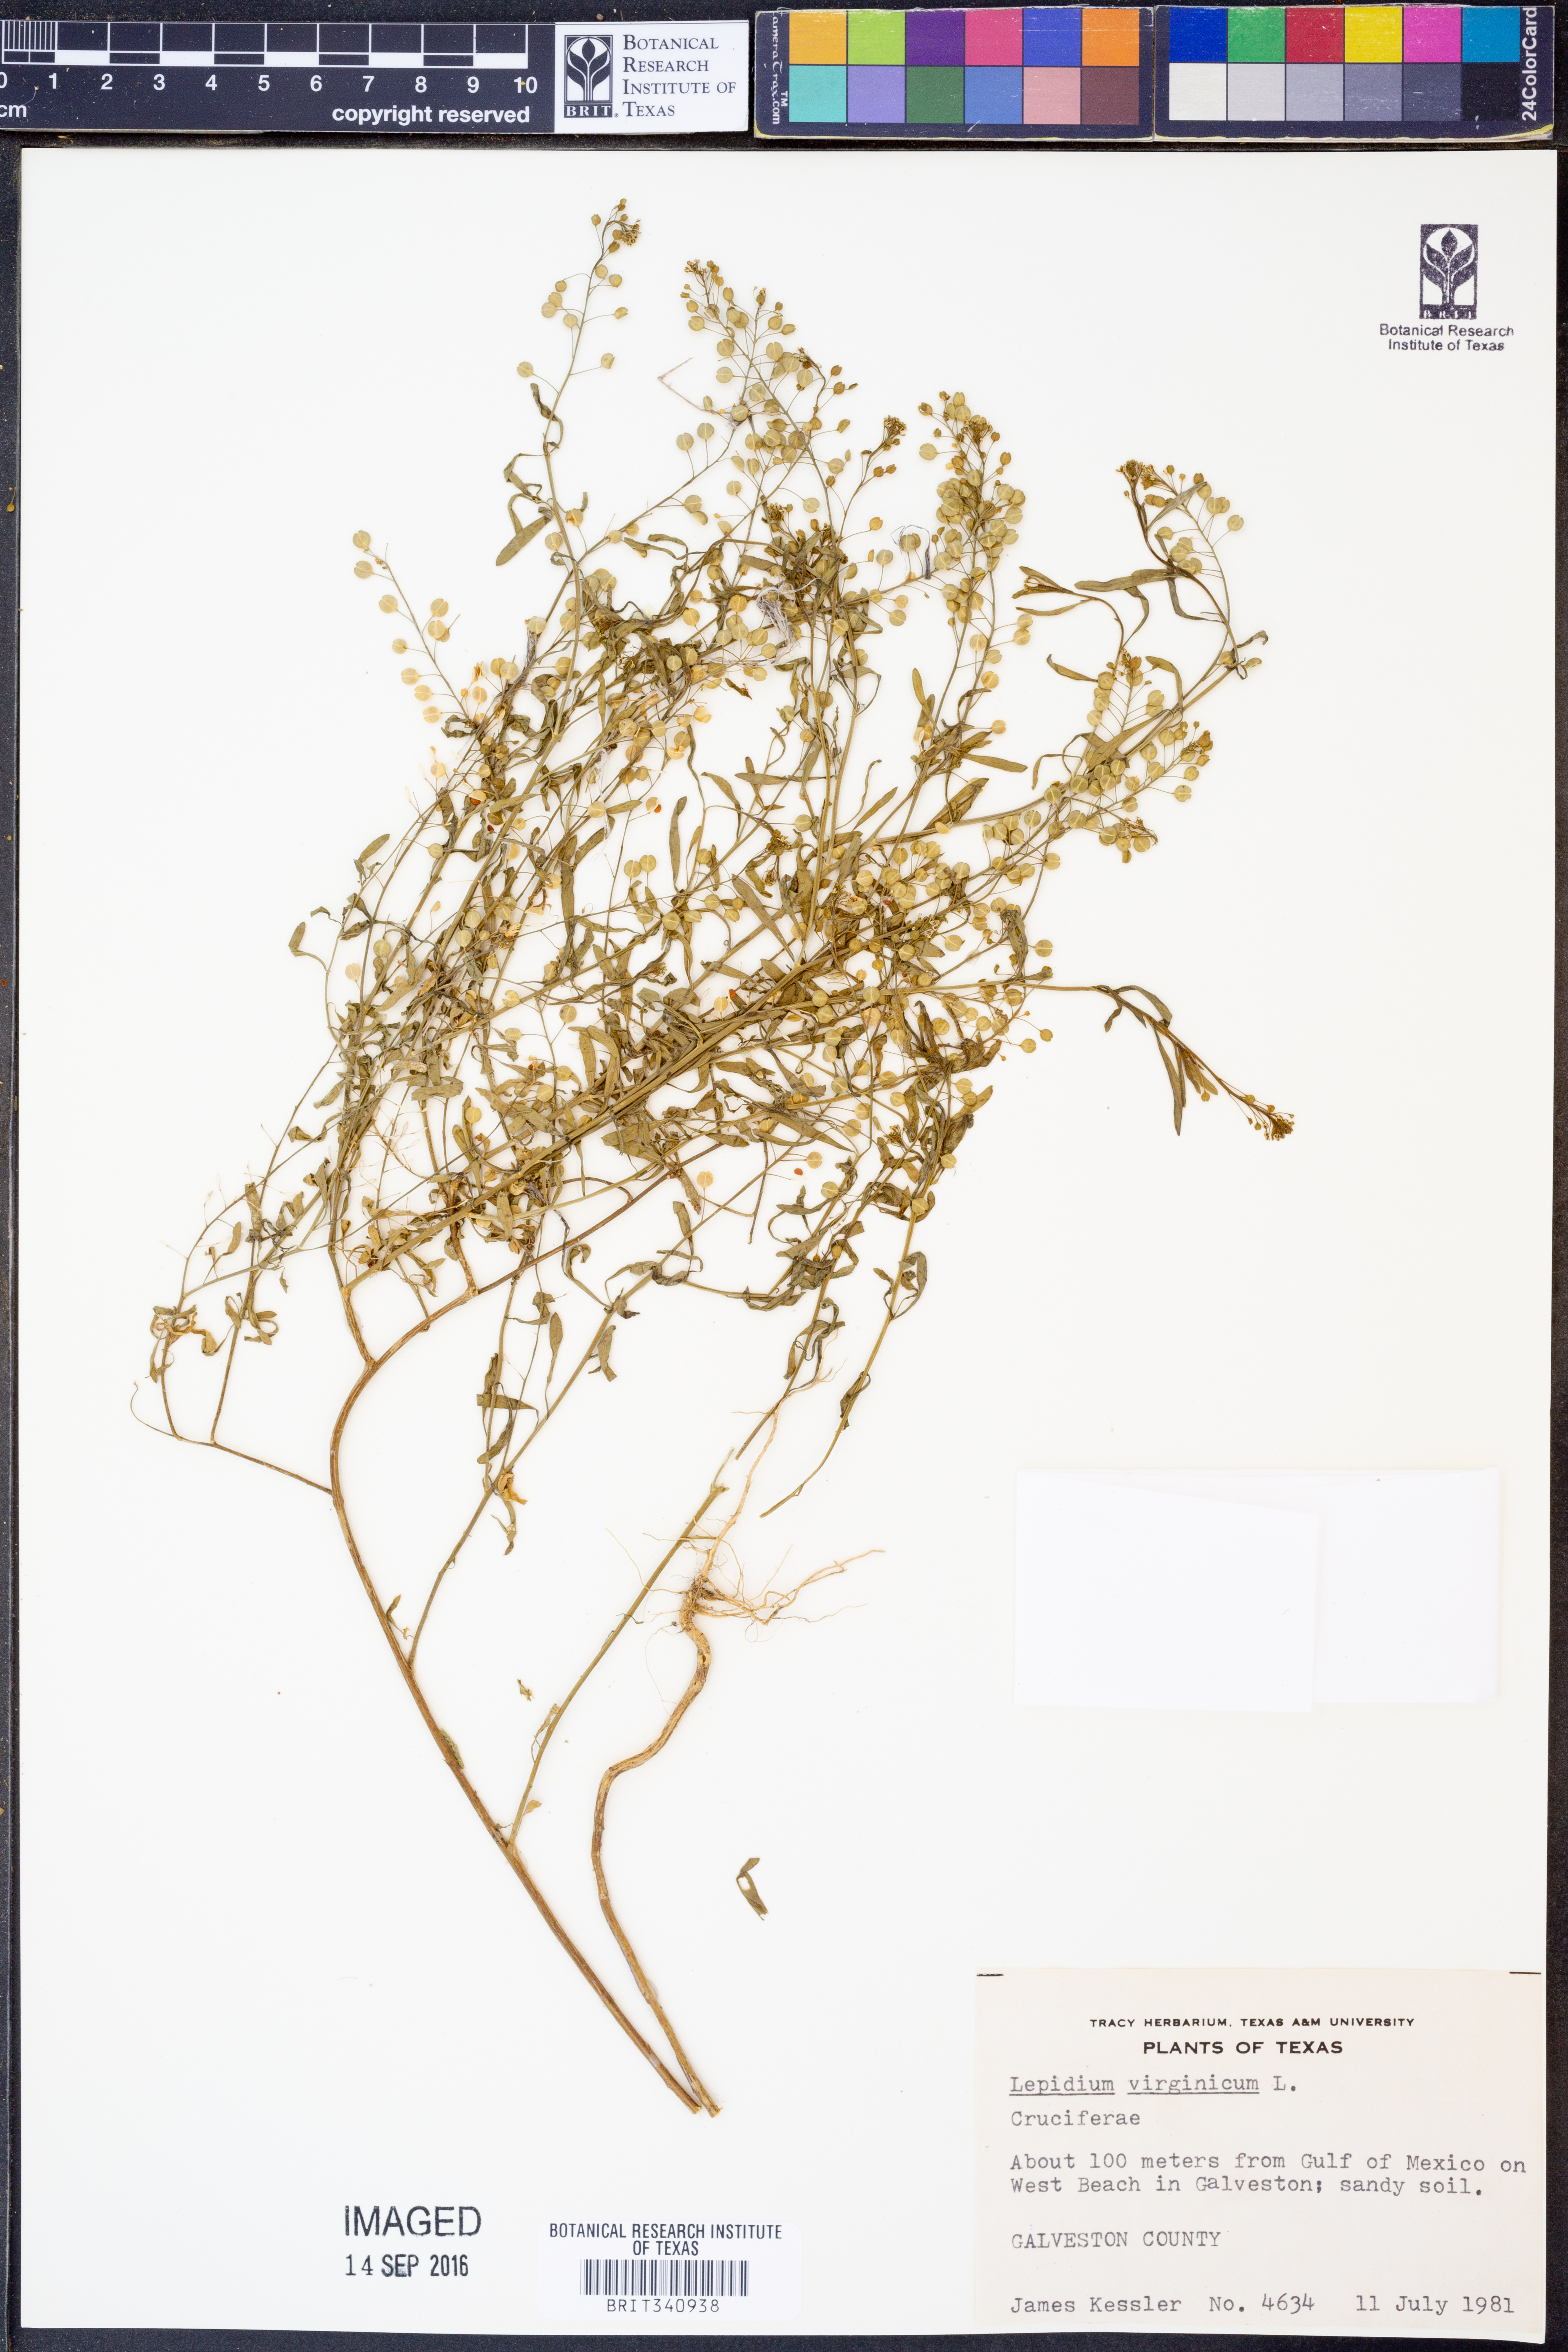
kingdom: Plantae
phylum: Tracheophyta
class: Magnoliopsida
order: Brassicales
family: Brassicaceae
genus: Lepidium
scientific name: Lepidium virginicum
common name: Least pepperwort
